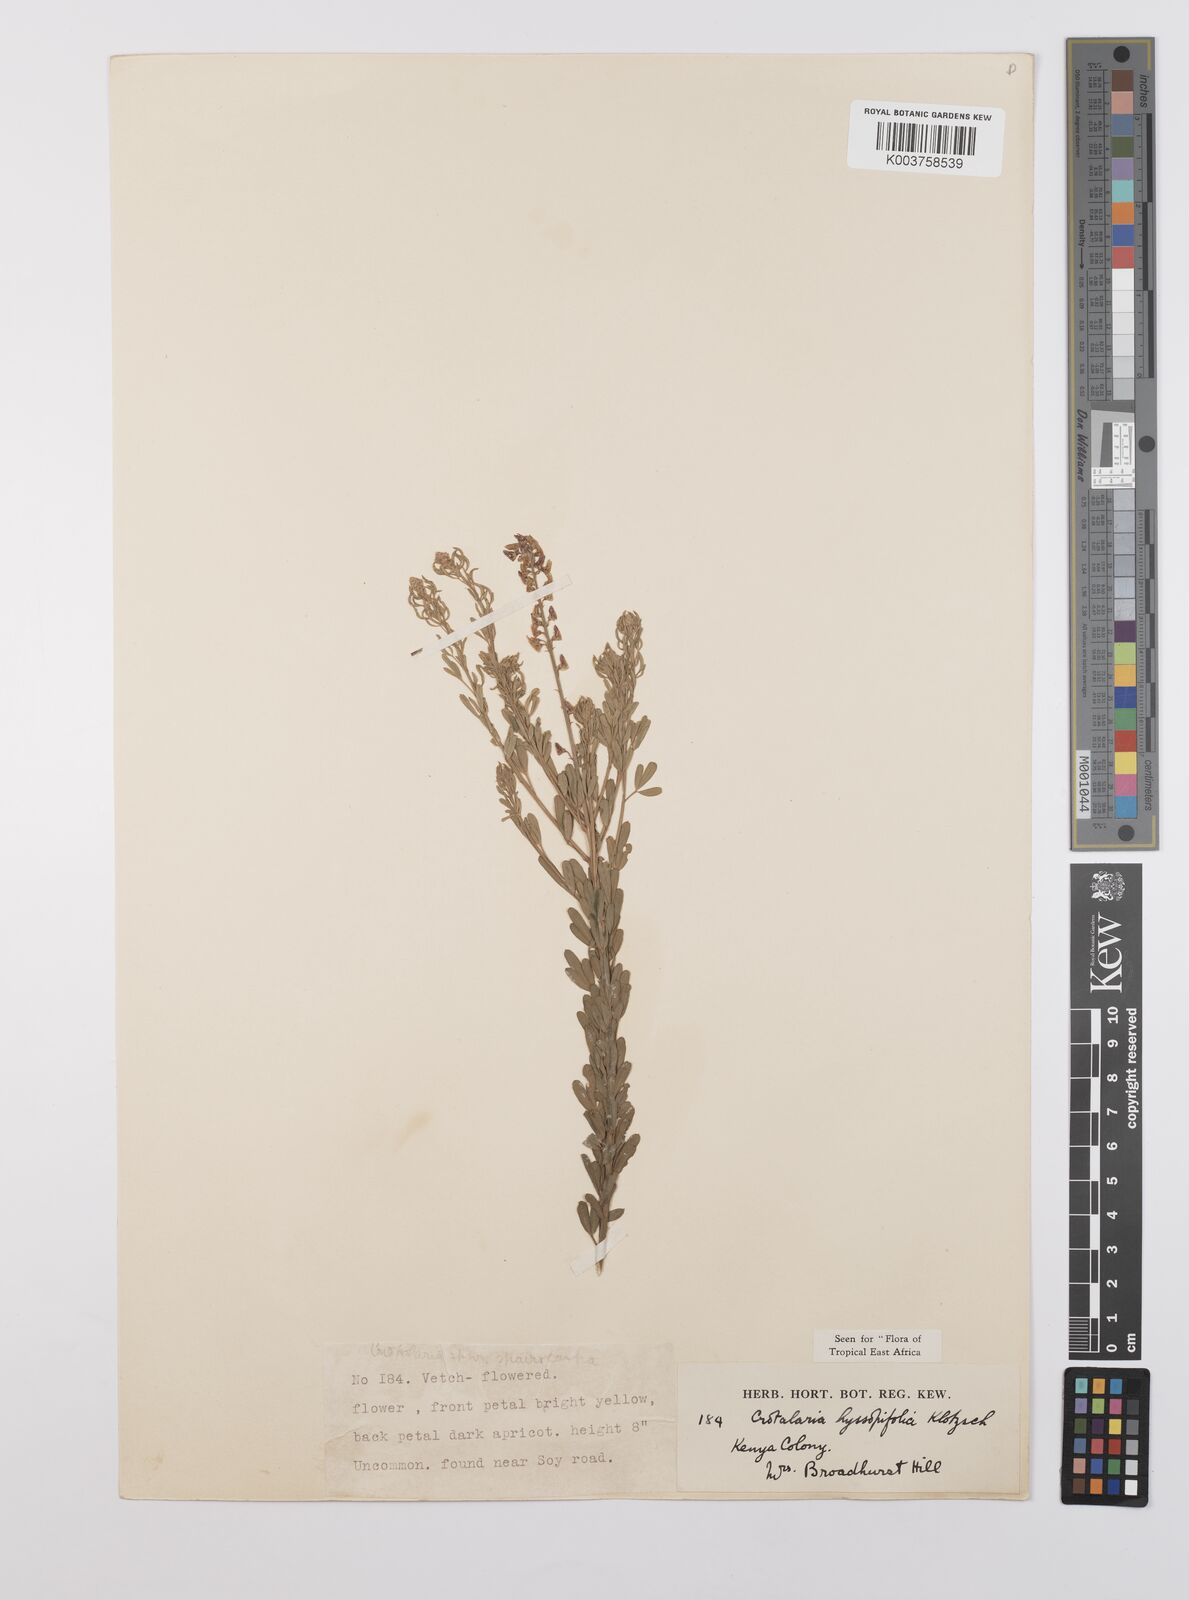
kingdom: Plantae
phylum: Tracheophyta
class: Magnoliopsida
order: Fabales
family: Fabaceae
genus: Crotalaria
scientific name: Crotalaria hyssopifolia
